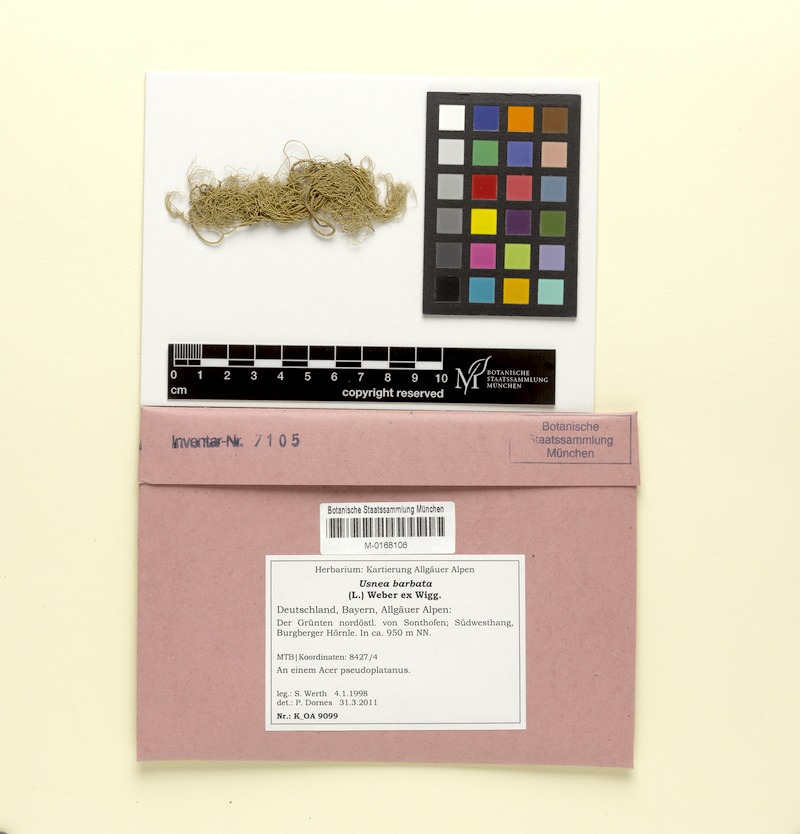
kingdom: Fungi
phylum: Ascomycota
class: Lecanoromycetes
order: Lecanorales
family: Parmeliaceae
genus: Usnea
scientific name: Usnea barbata
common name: Old man's beard lichen
